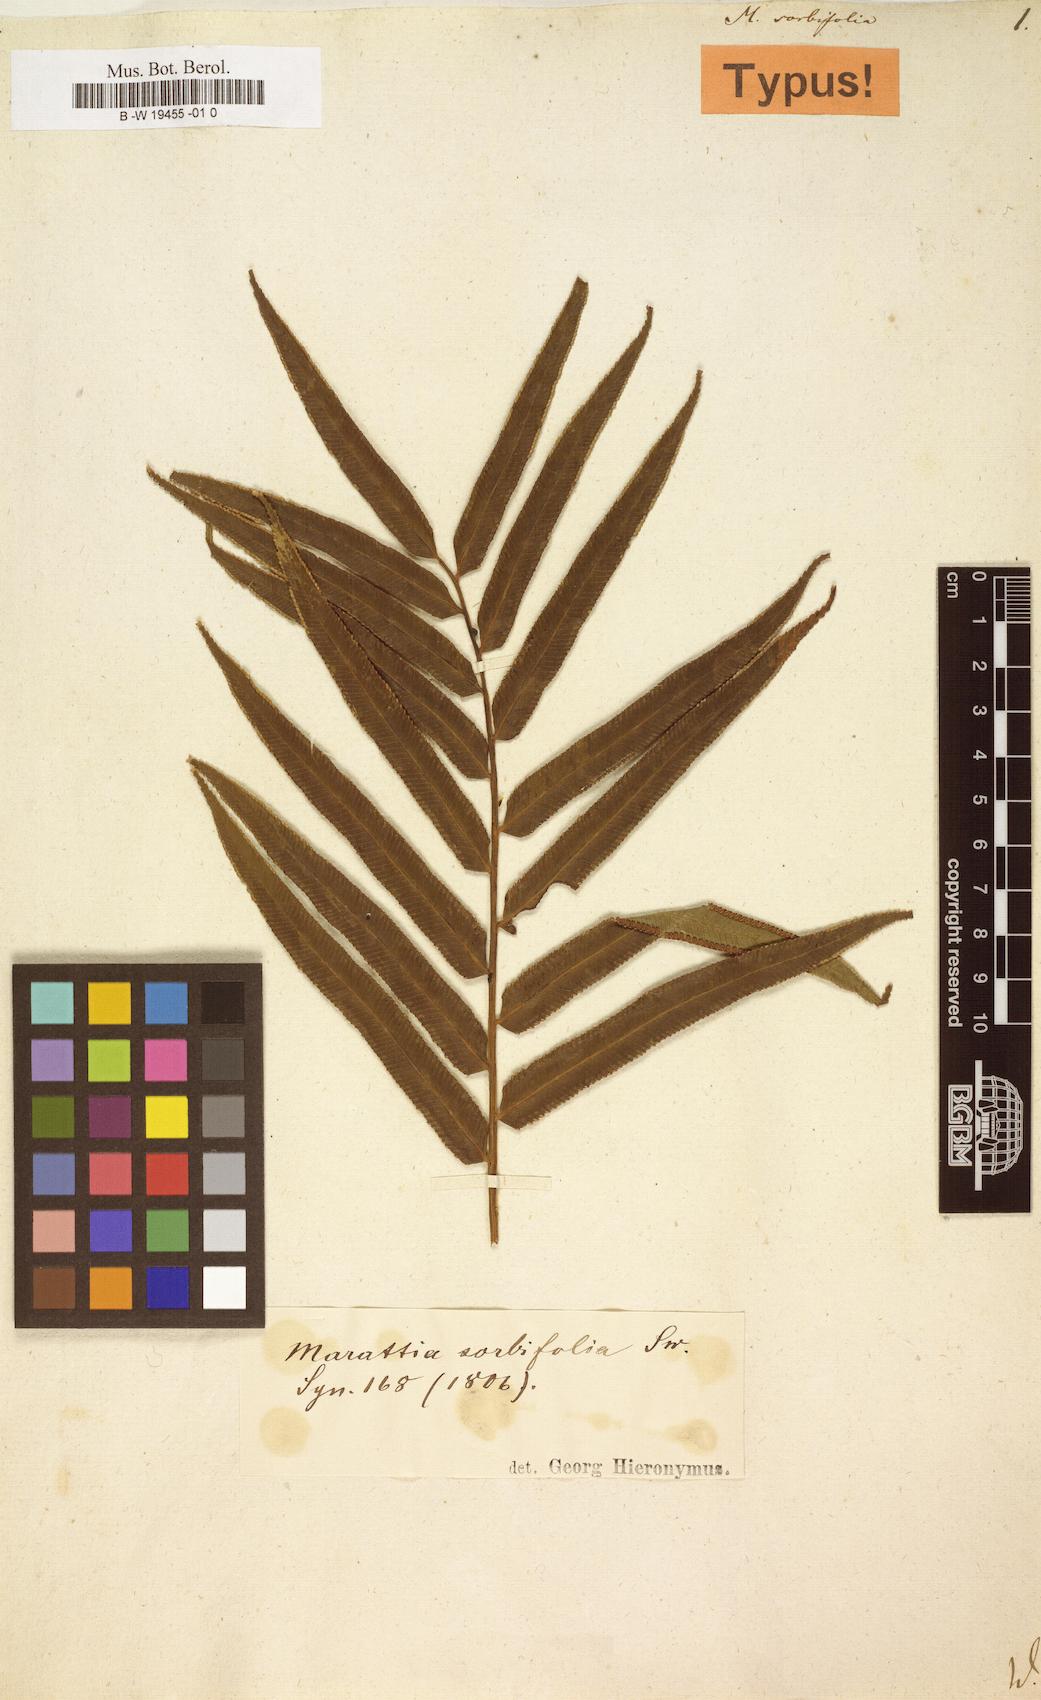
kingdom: Plantae
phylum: Tracheophyta
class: Polypodiopsida
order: Marattiales
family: Marattiaceae
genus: Ptisana
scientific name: Ptisana
